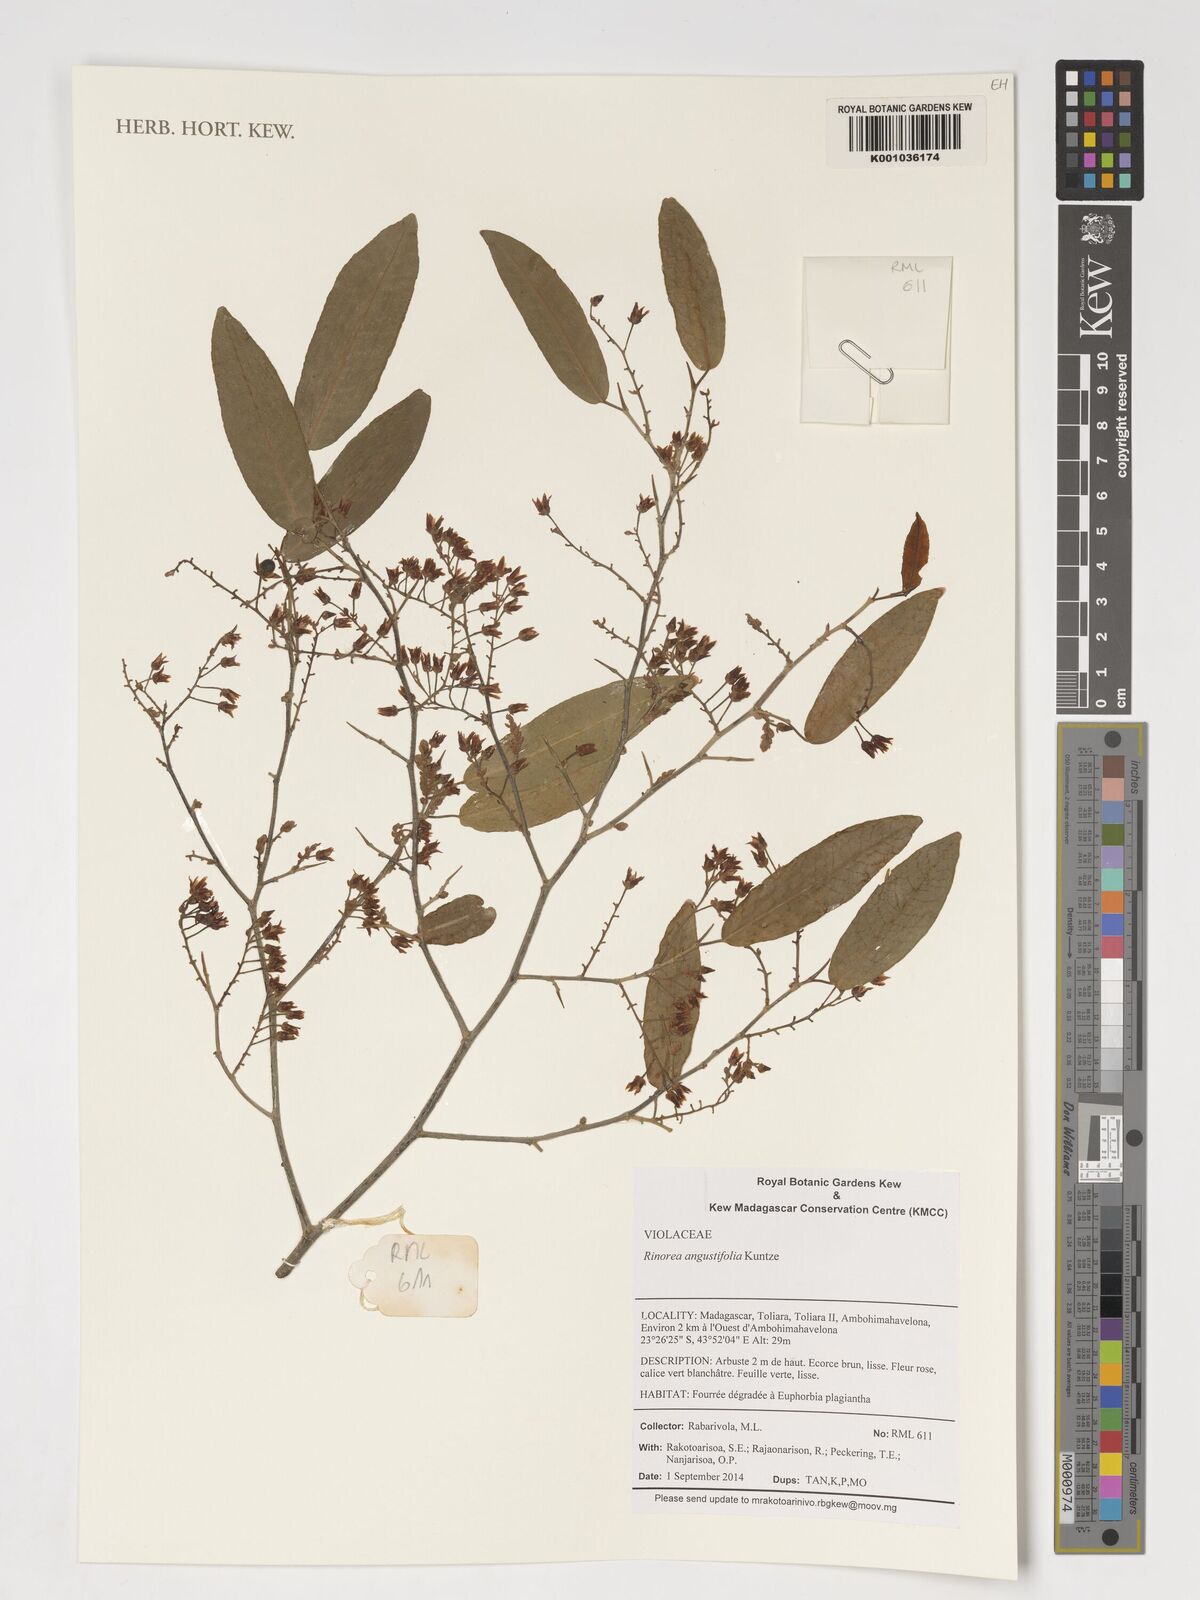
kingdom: Plantae
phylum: Tracheophyta
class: Magnoliopsida
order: Malpighiales
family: Violaceae
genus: Rinorea
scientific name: Rinorea angustifolia
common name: White violet-bush
